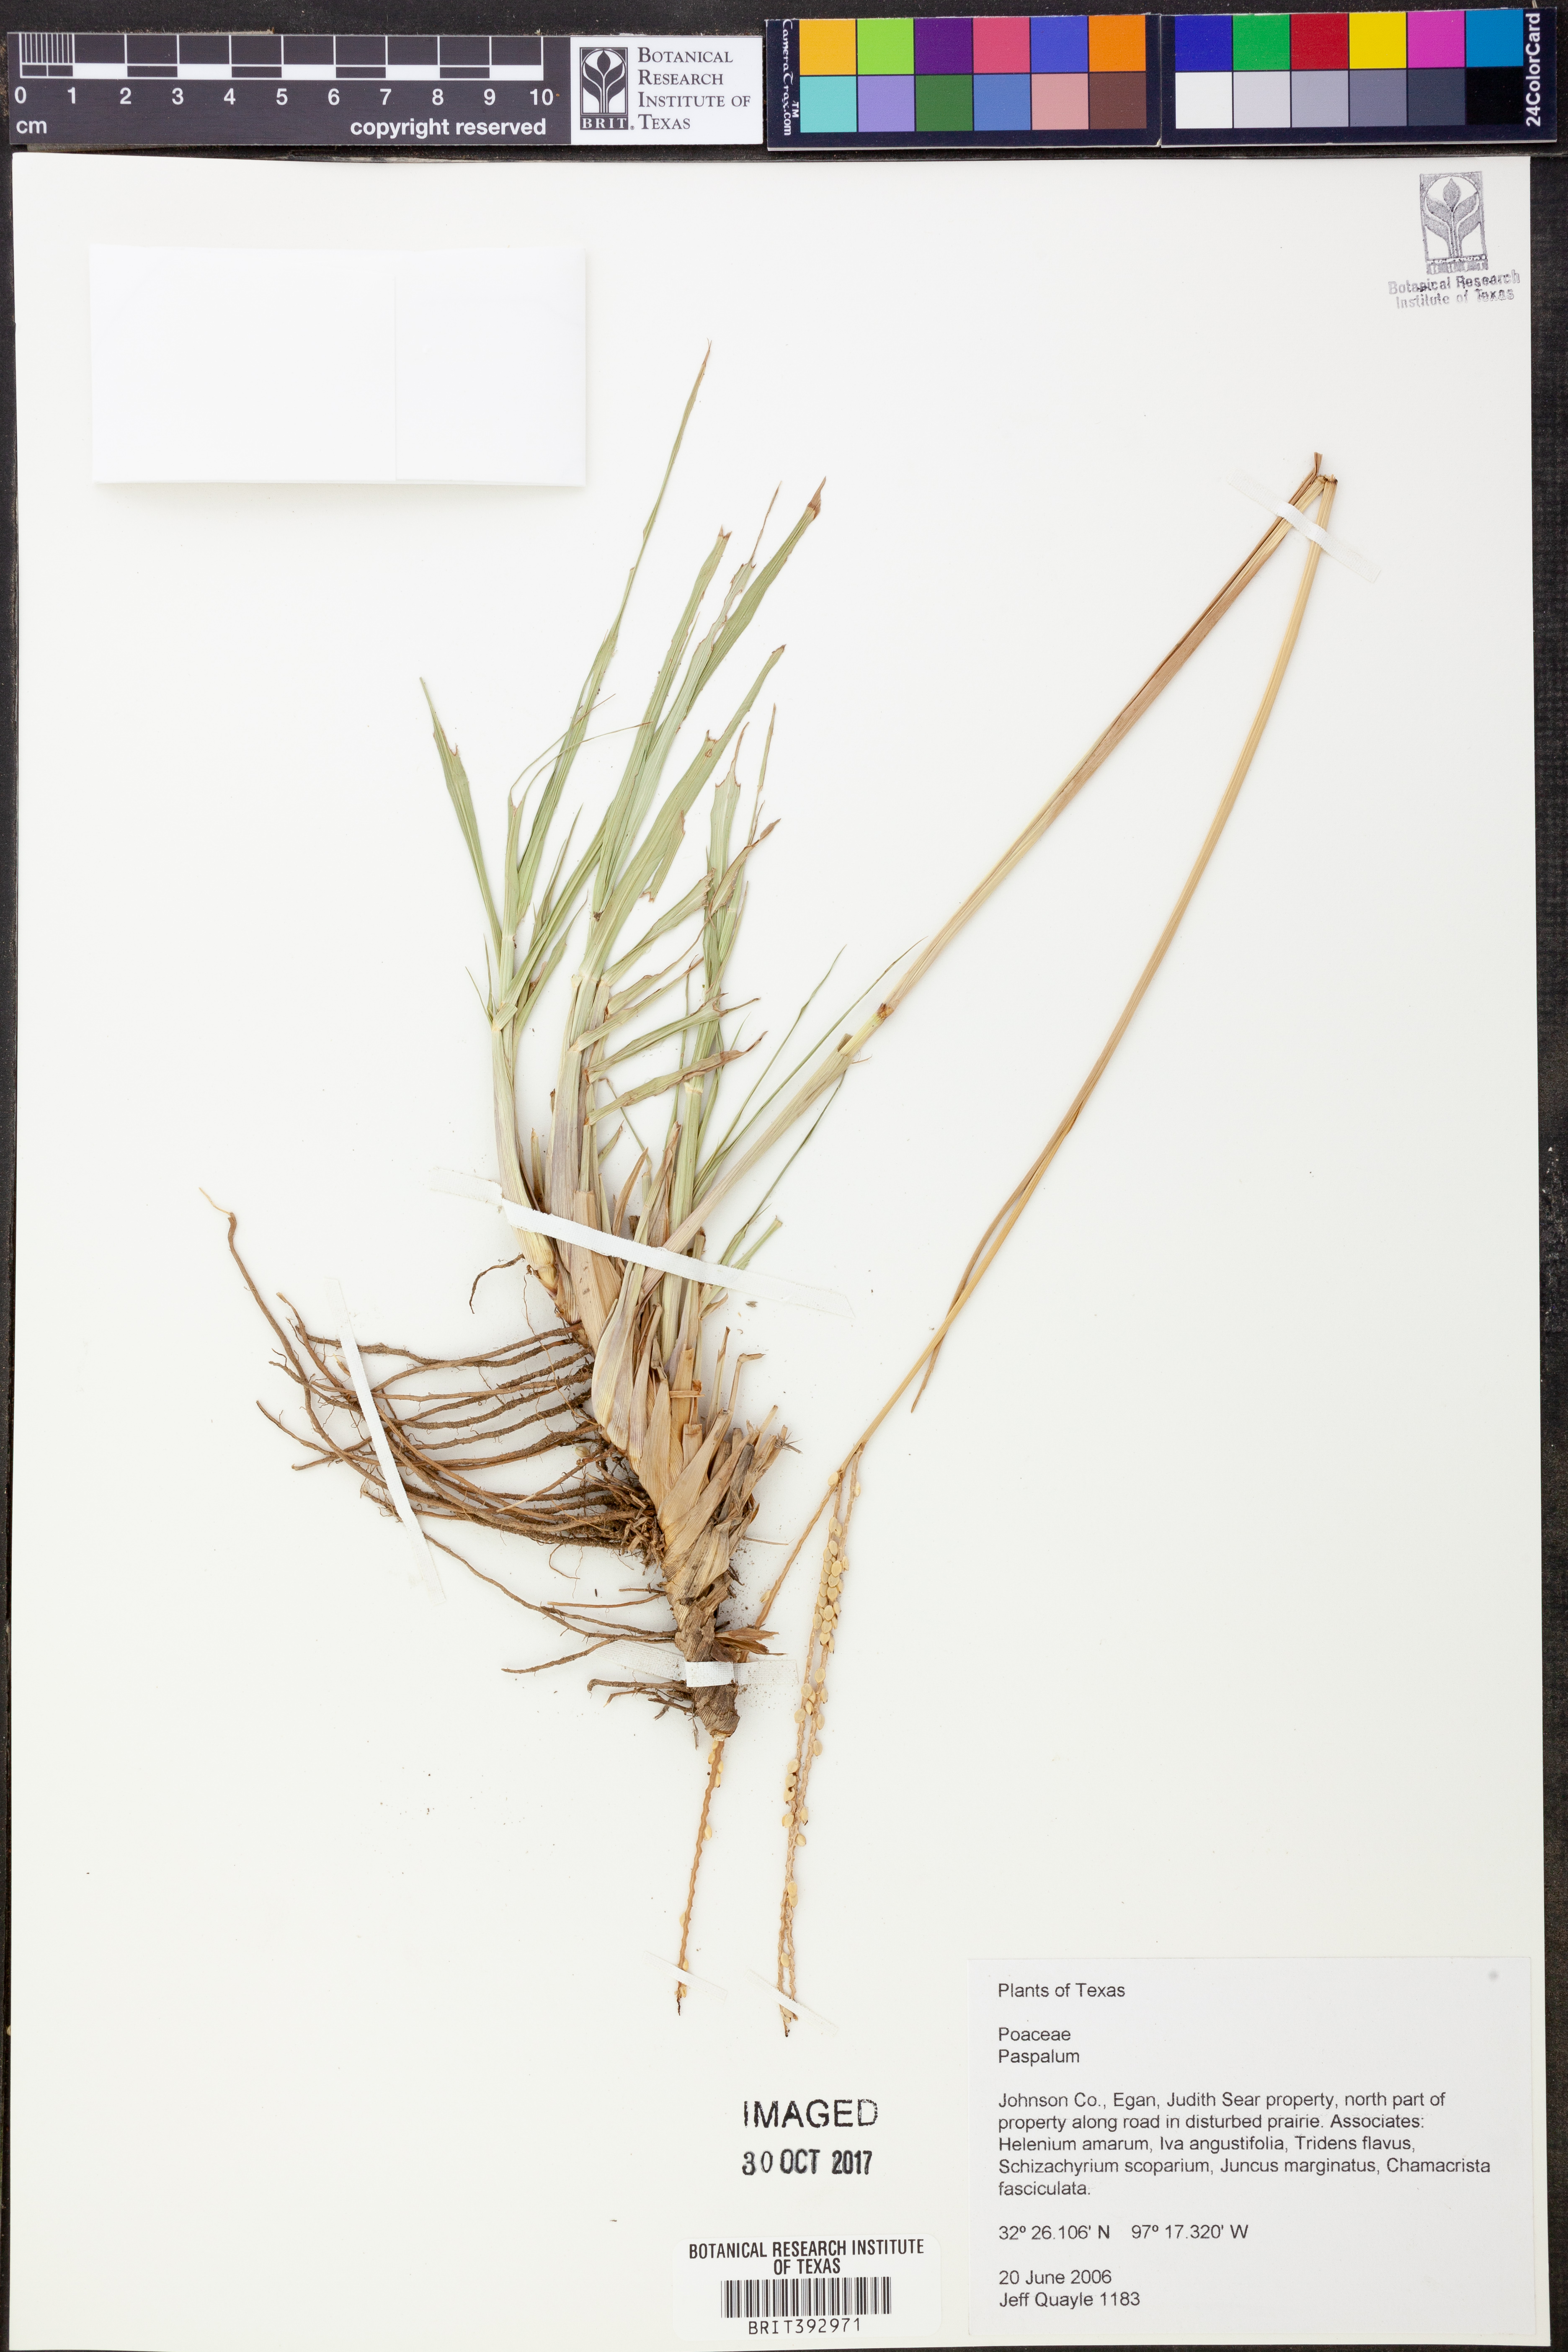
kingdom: Plantae
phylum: Tracheophyta
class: Liliopsida
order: Poales
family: Poaceae
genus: Paspalum
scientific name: Paspalum
